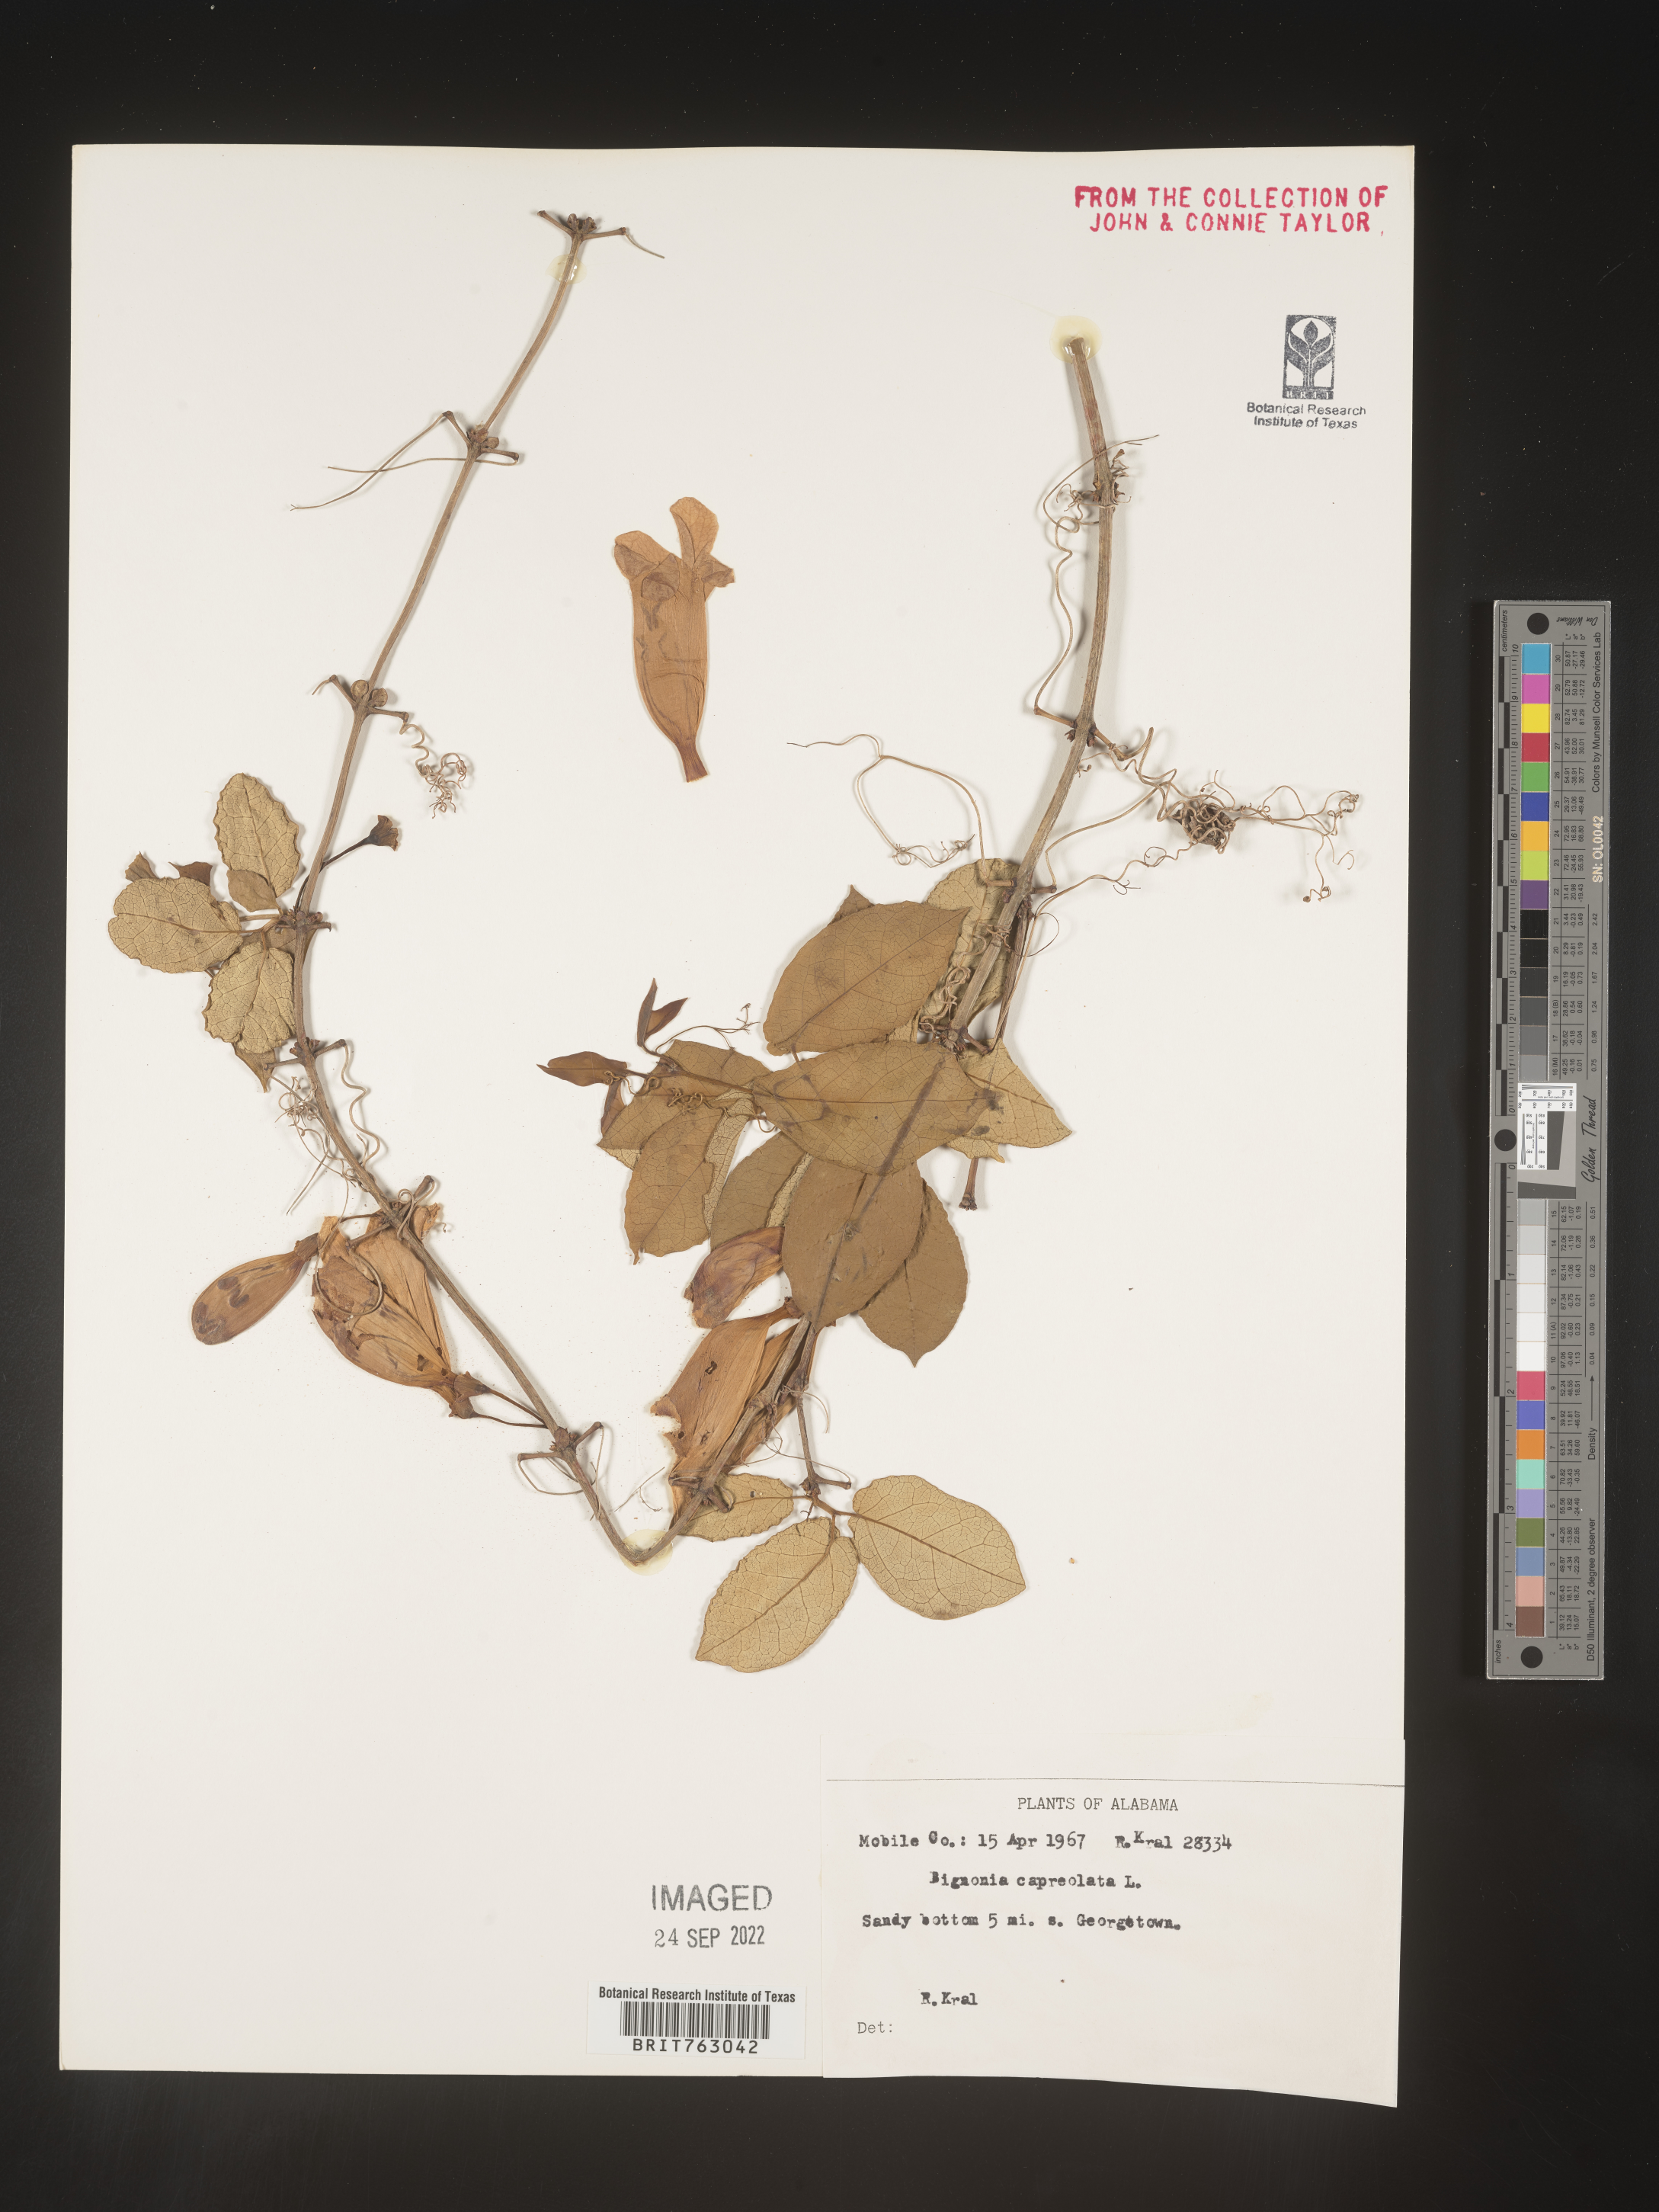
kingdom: Plantae
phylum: Tracheophyta
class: Magnoliopsida
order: Lamiales
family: Bignoniaceae
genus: Bignonia
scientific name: Bignonia capreolata
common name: Crossvine
